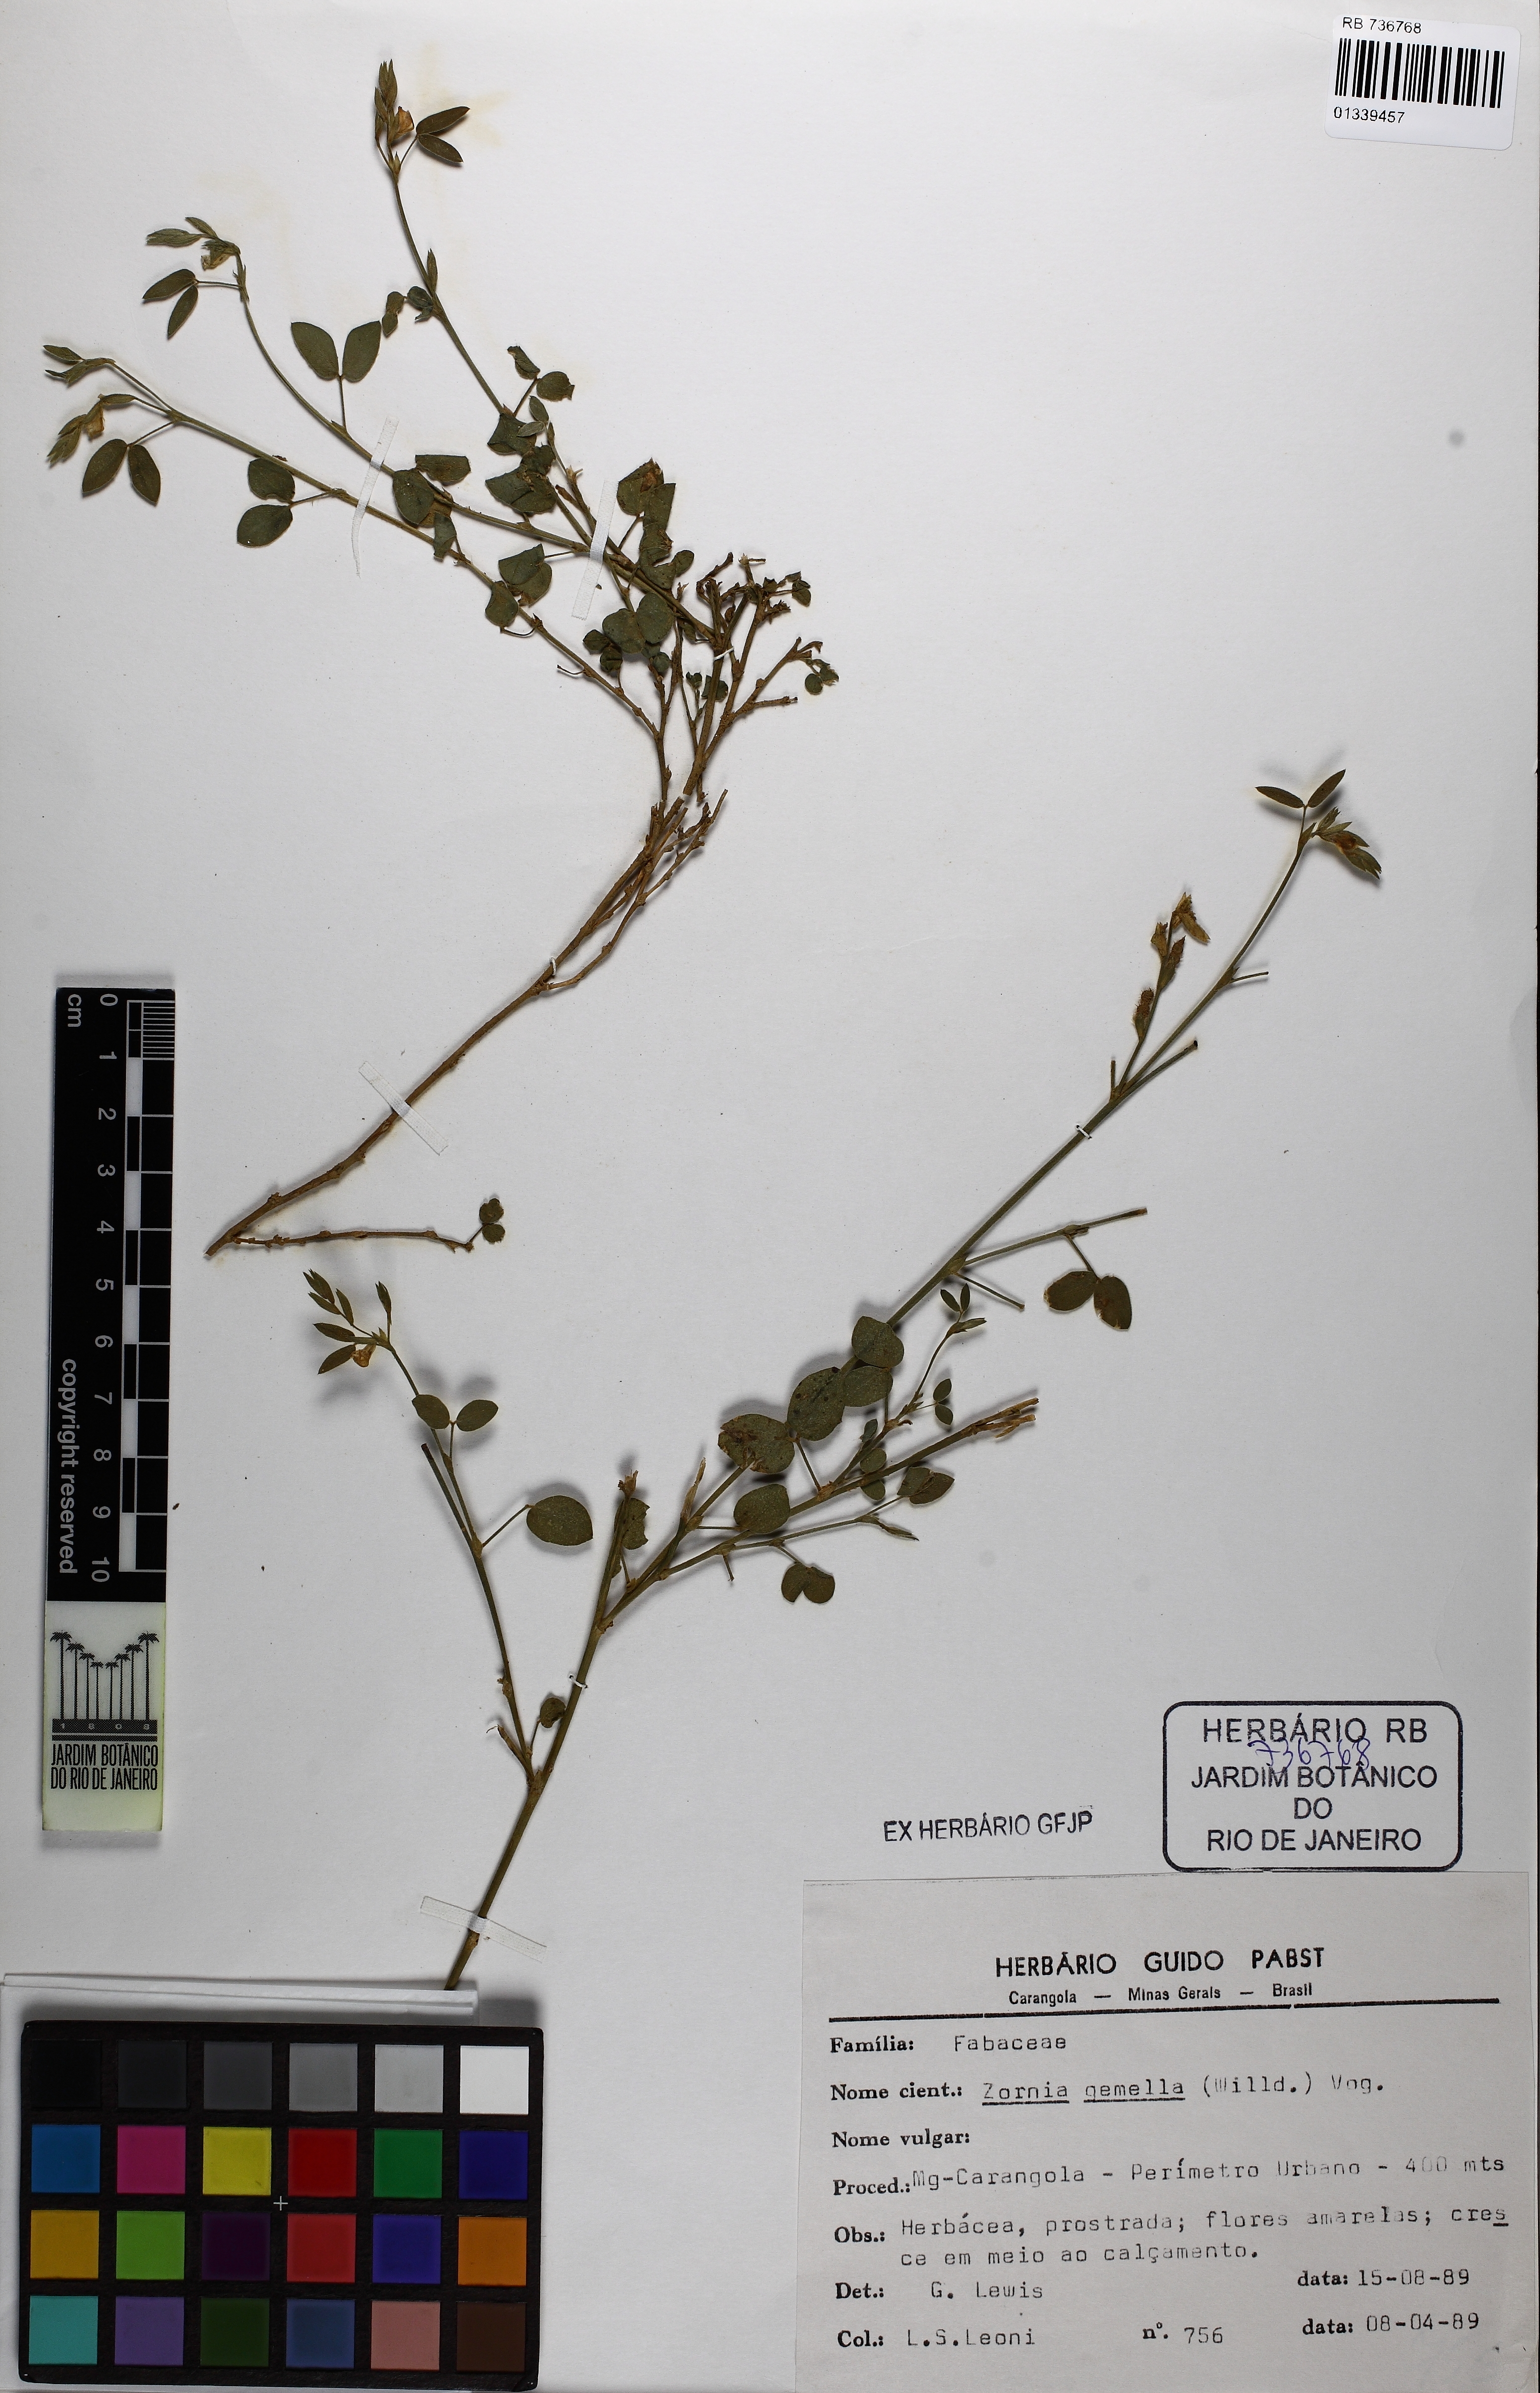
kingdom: Plantae
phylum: Tracheophyta
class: Magnoliopsida
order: Fabales
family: Fabaceae
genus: Zornia
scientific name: Zornia latifolia
